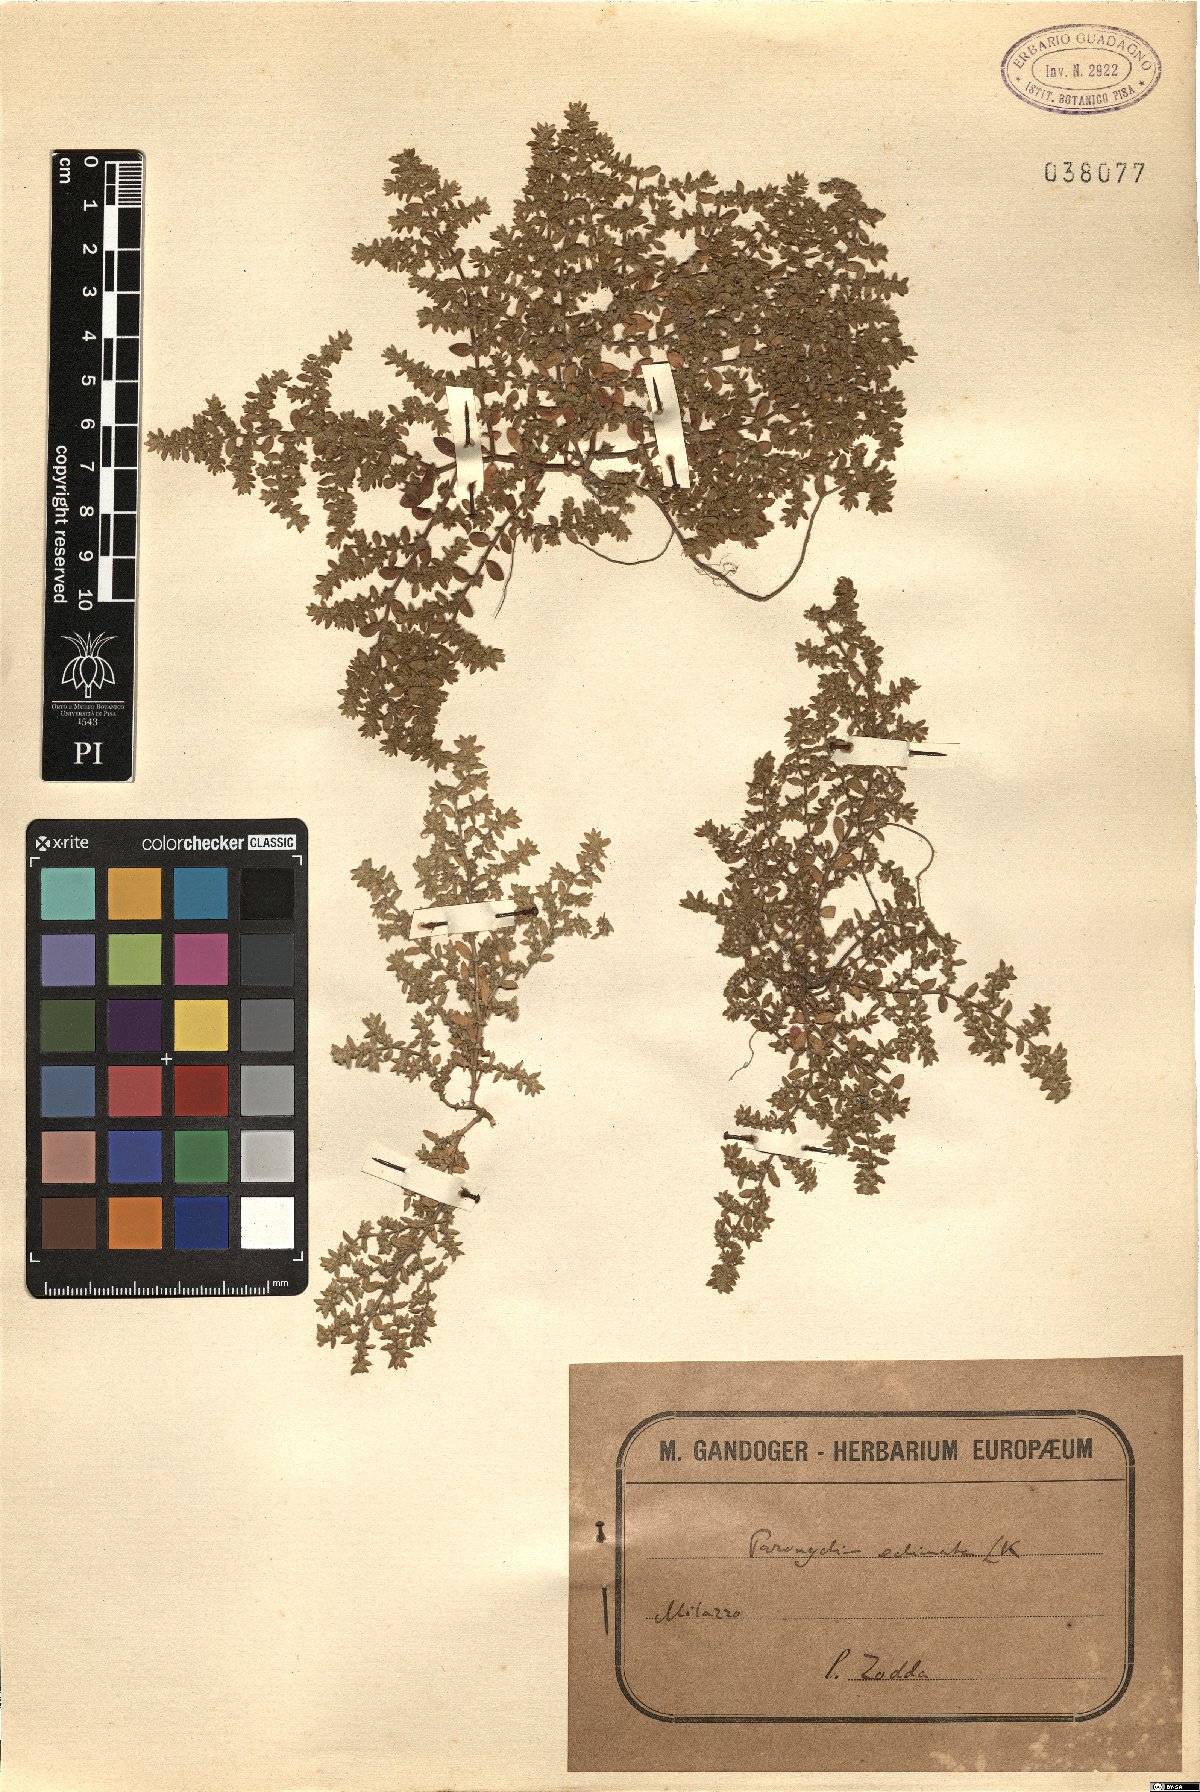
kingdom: Plantae
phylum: Tracheophyta
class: Magnoliopsida
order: Caryophyllales
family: Caryophyllaceae
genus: Chaetonychia
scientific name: Chaetonychia cymosa
